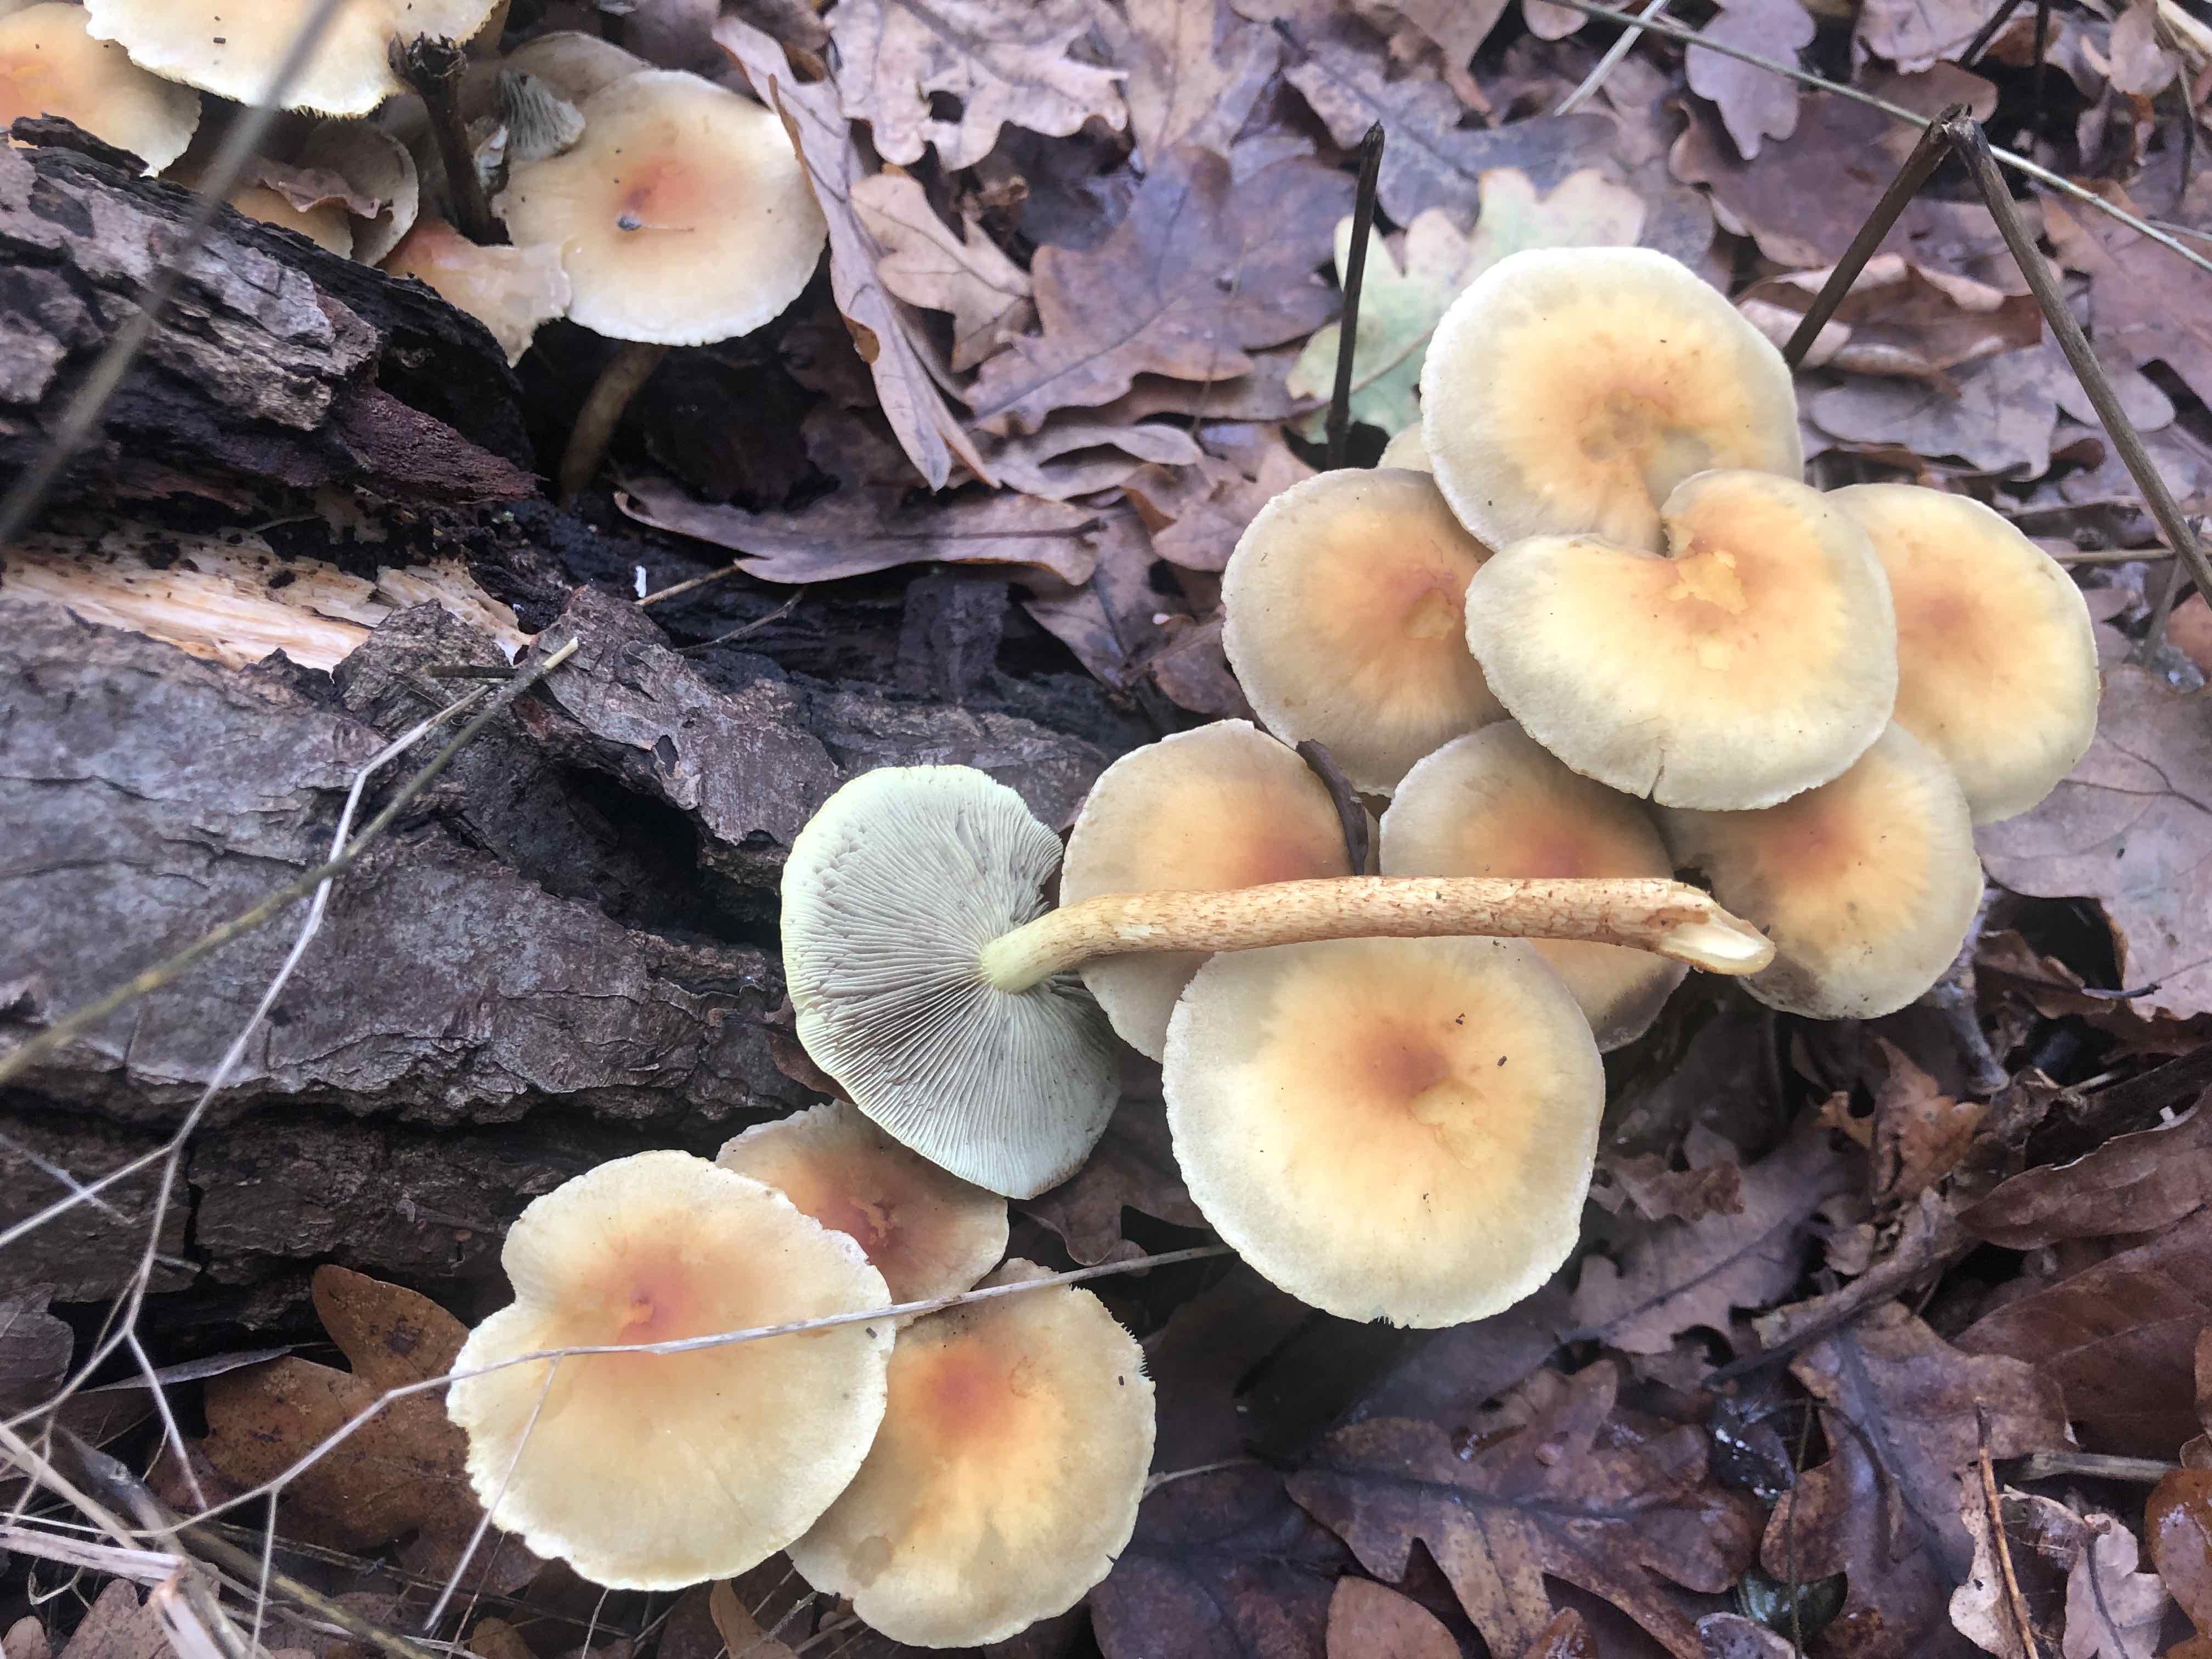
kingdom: Fungi
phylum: Basidiomycota
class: Agaricomycetes
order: Agaricales
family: Strophariaceae
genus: Hypholoma
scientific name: Hypholoma fasciculare
